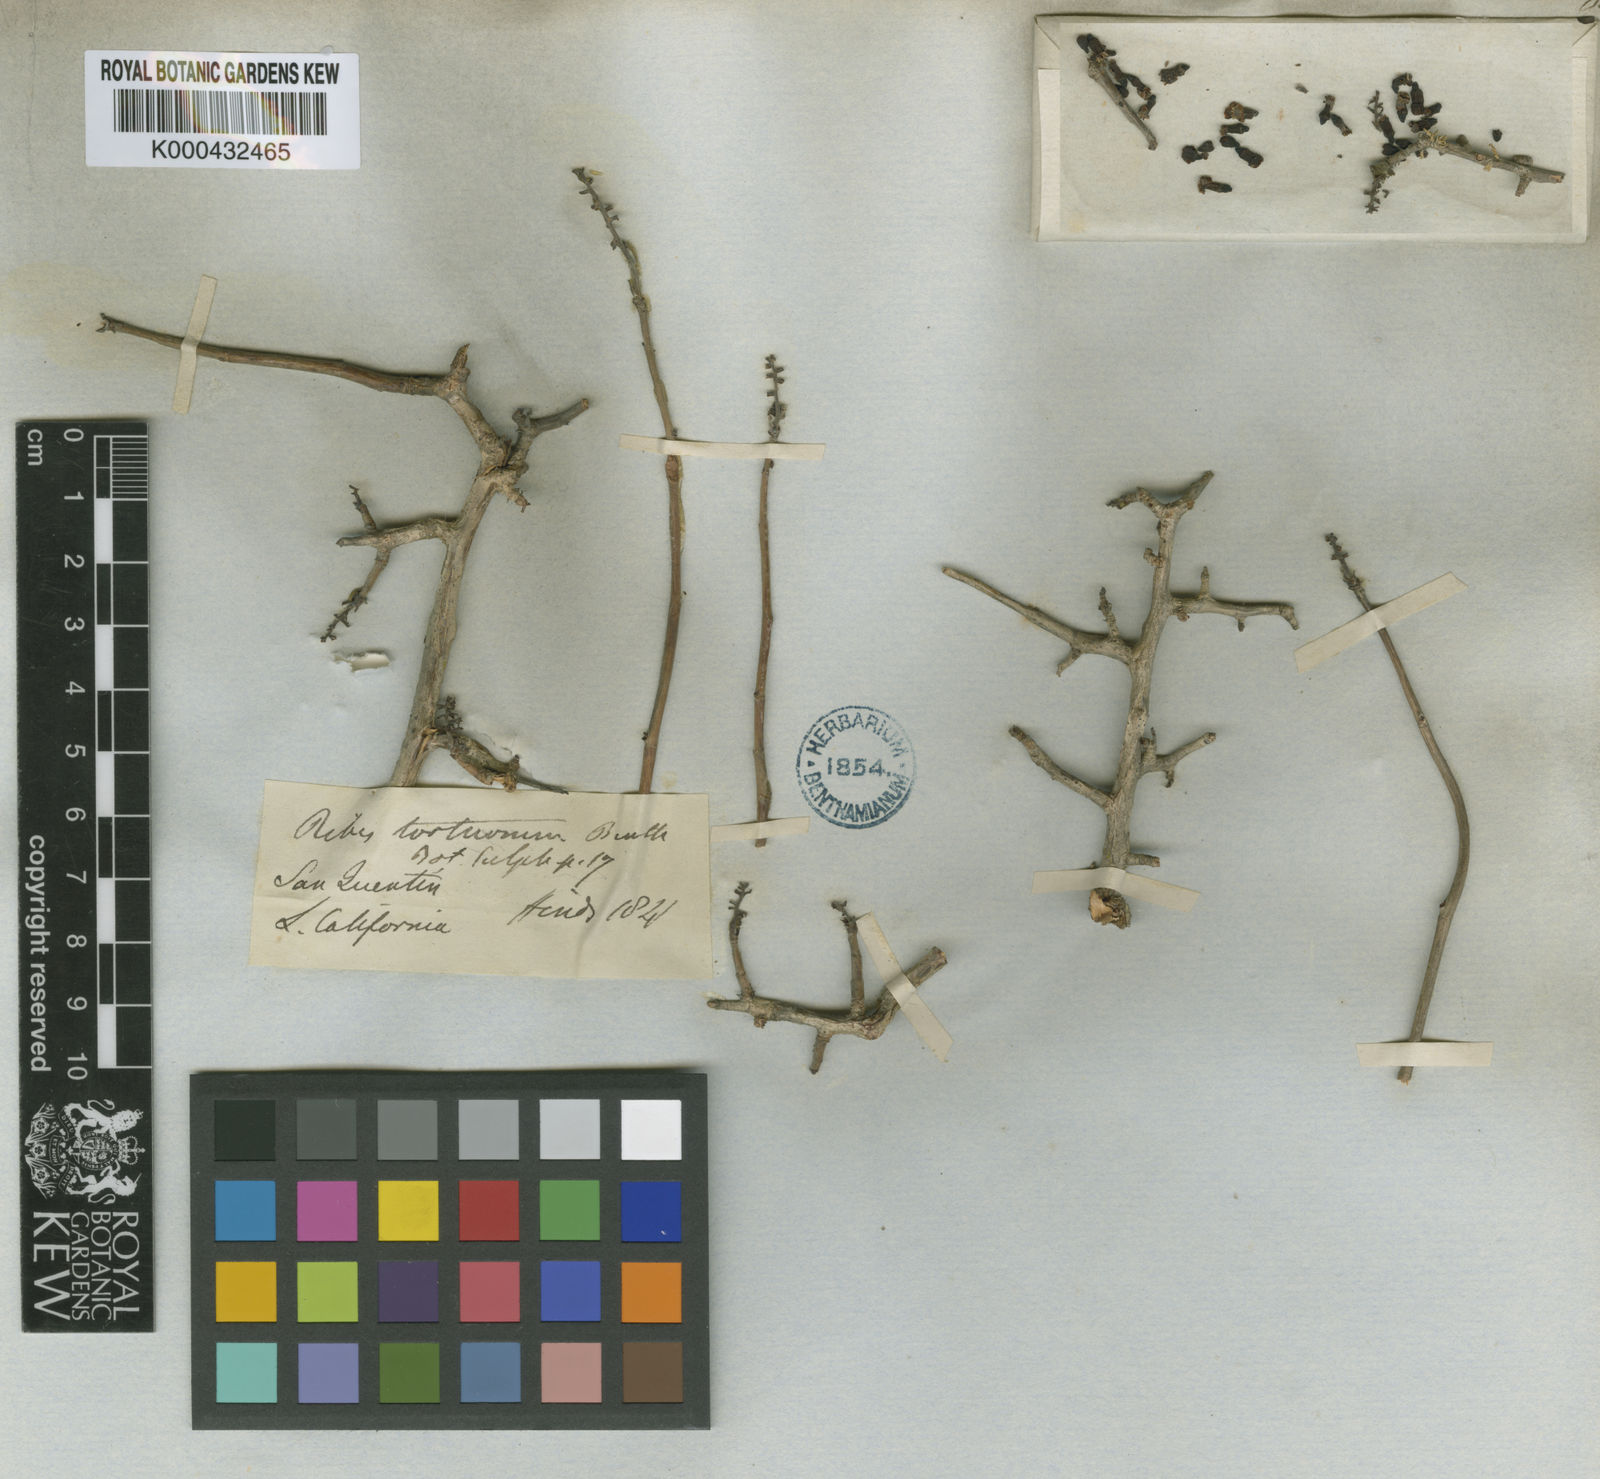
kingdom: Plantae
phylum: Tracheophyta
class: Magnoliopsida
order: Saxifragales
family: Grossulariaceae
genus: Ribes
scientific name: Ribes tortuosum
